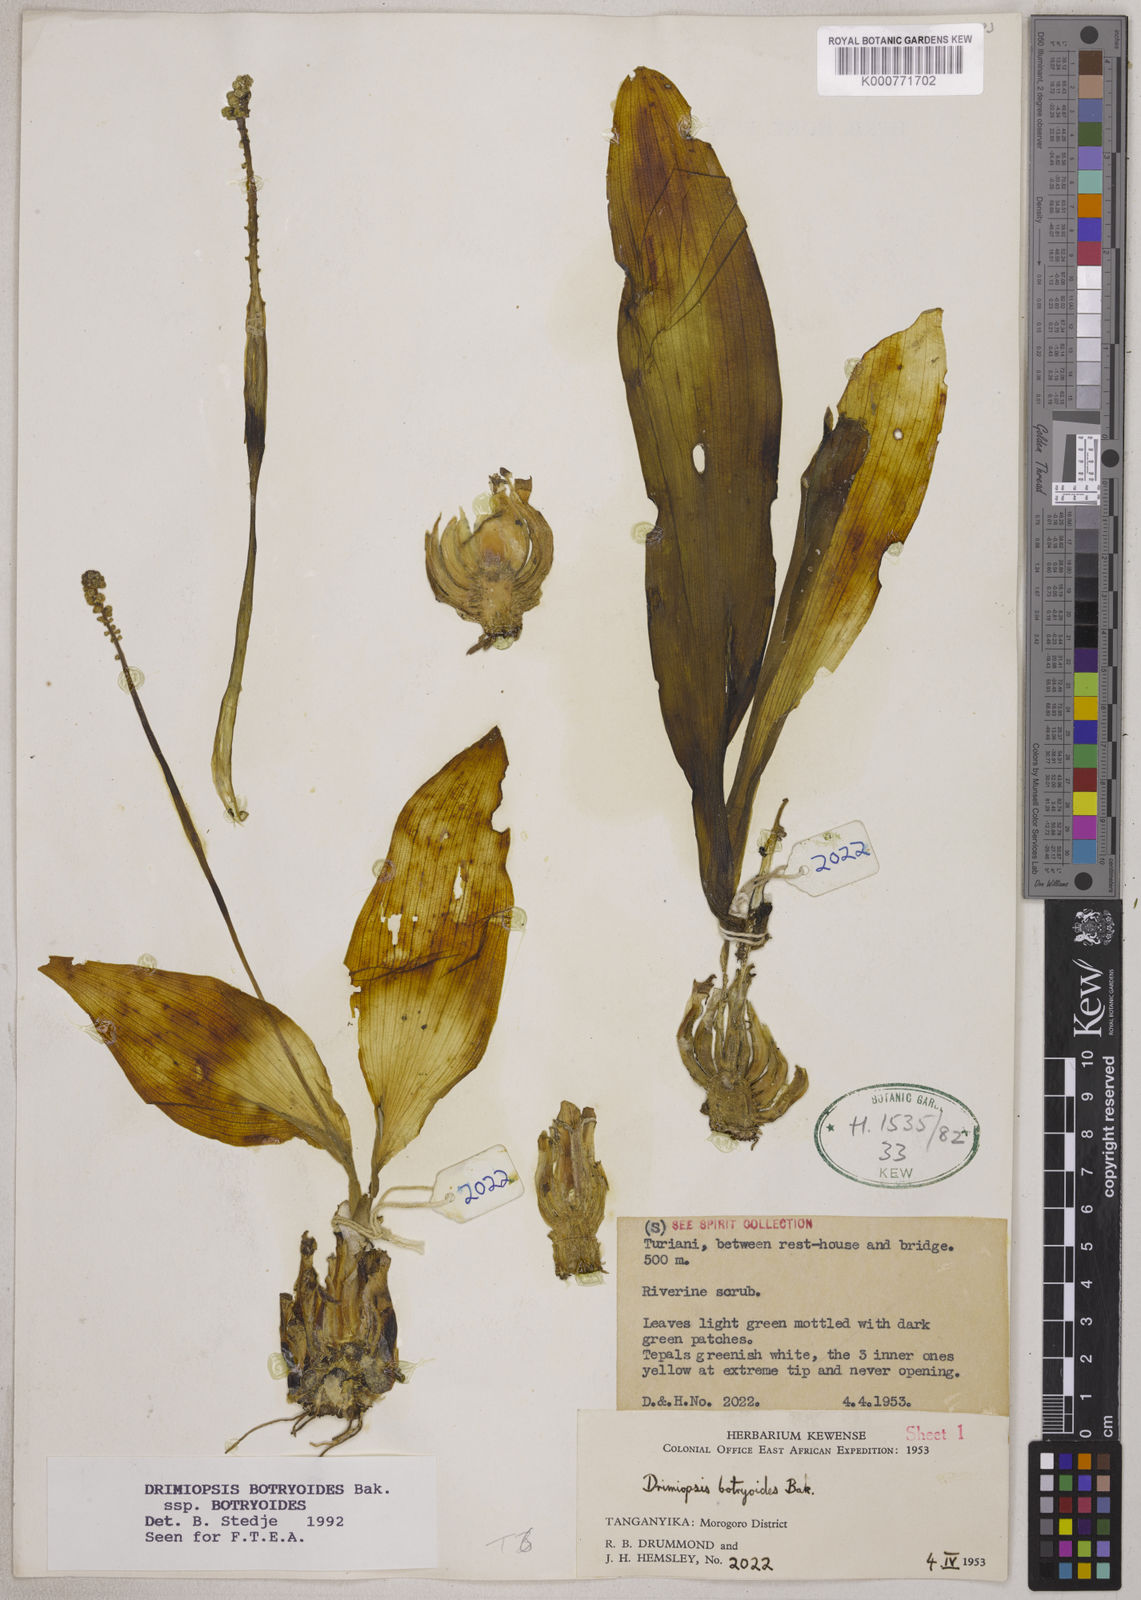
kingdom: Plantae
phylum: Tracheophyta
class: Liliopsida
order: Asparagales
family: Asparagaceae
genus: Drimiopsis
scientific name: Drimiopsis botryoides
